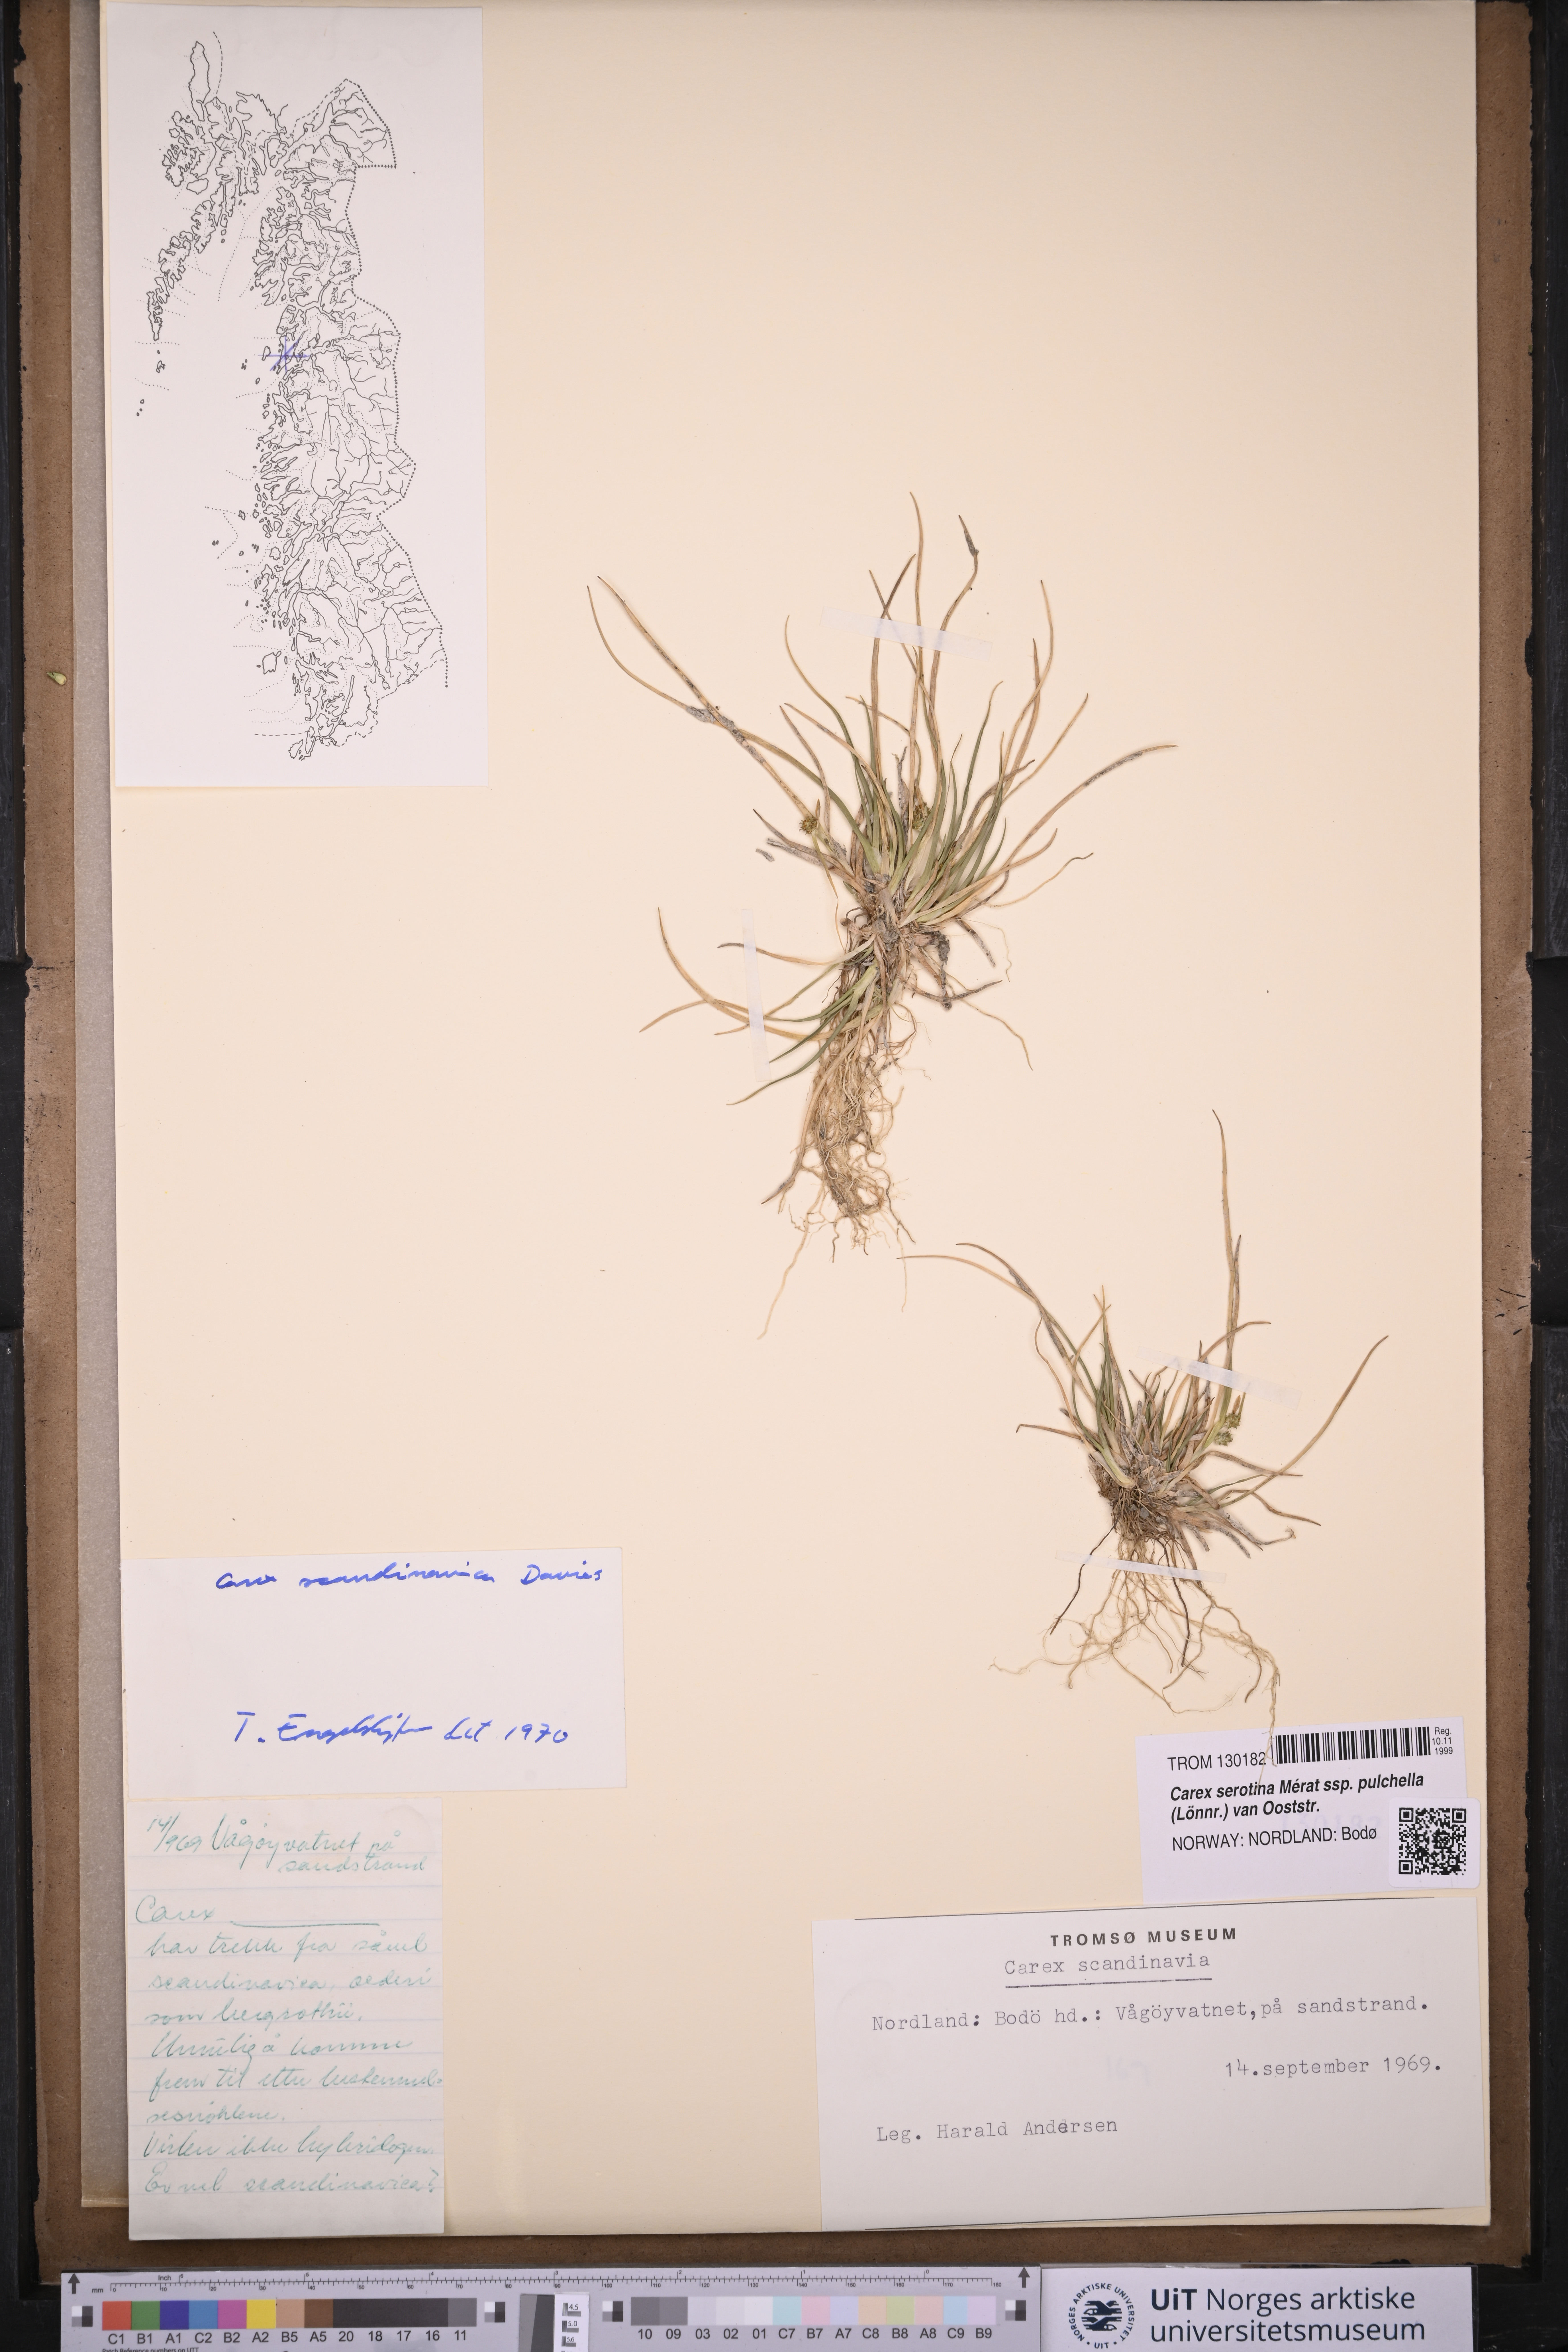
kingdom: Plantae
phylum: Tracheophyta
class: Liliopsida
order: Poales
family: Cyperaceae
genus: Carex
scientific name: Carex oederi
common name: Common & small-fruited yellow-sedge
